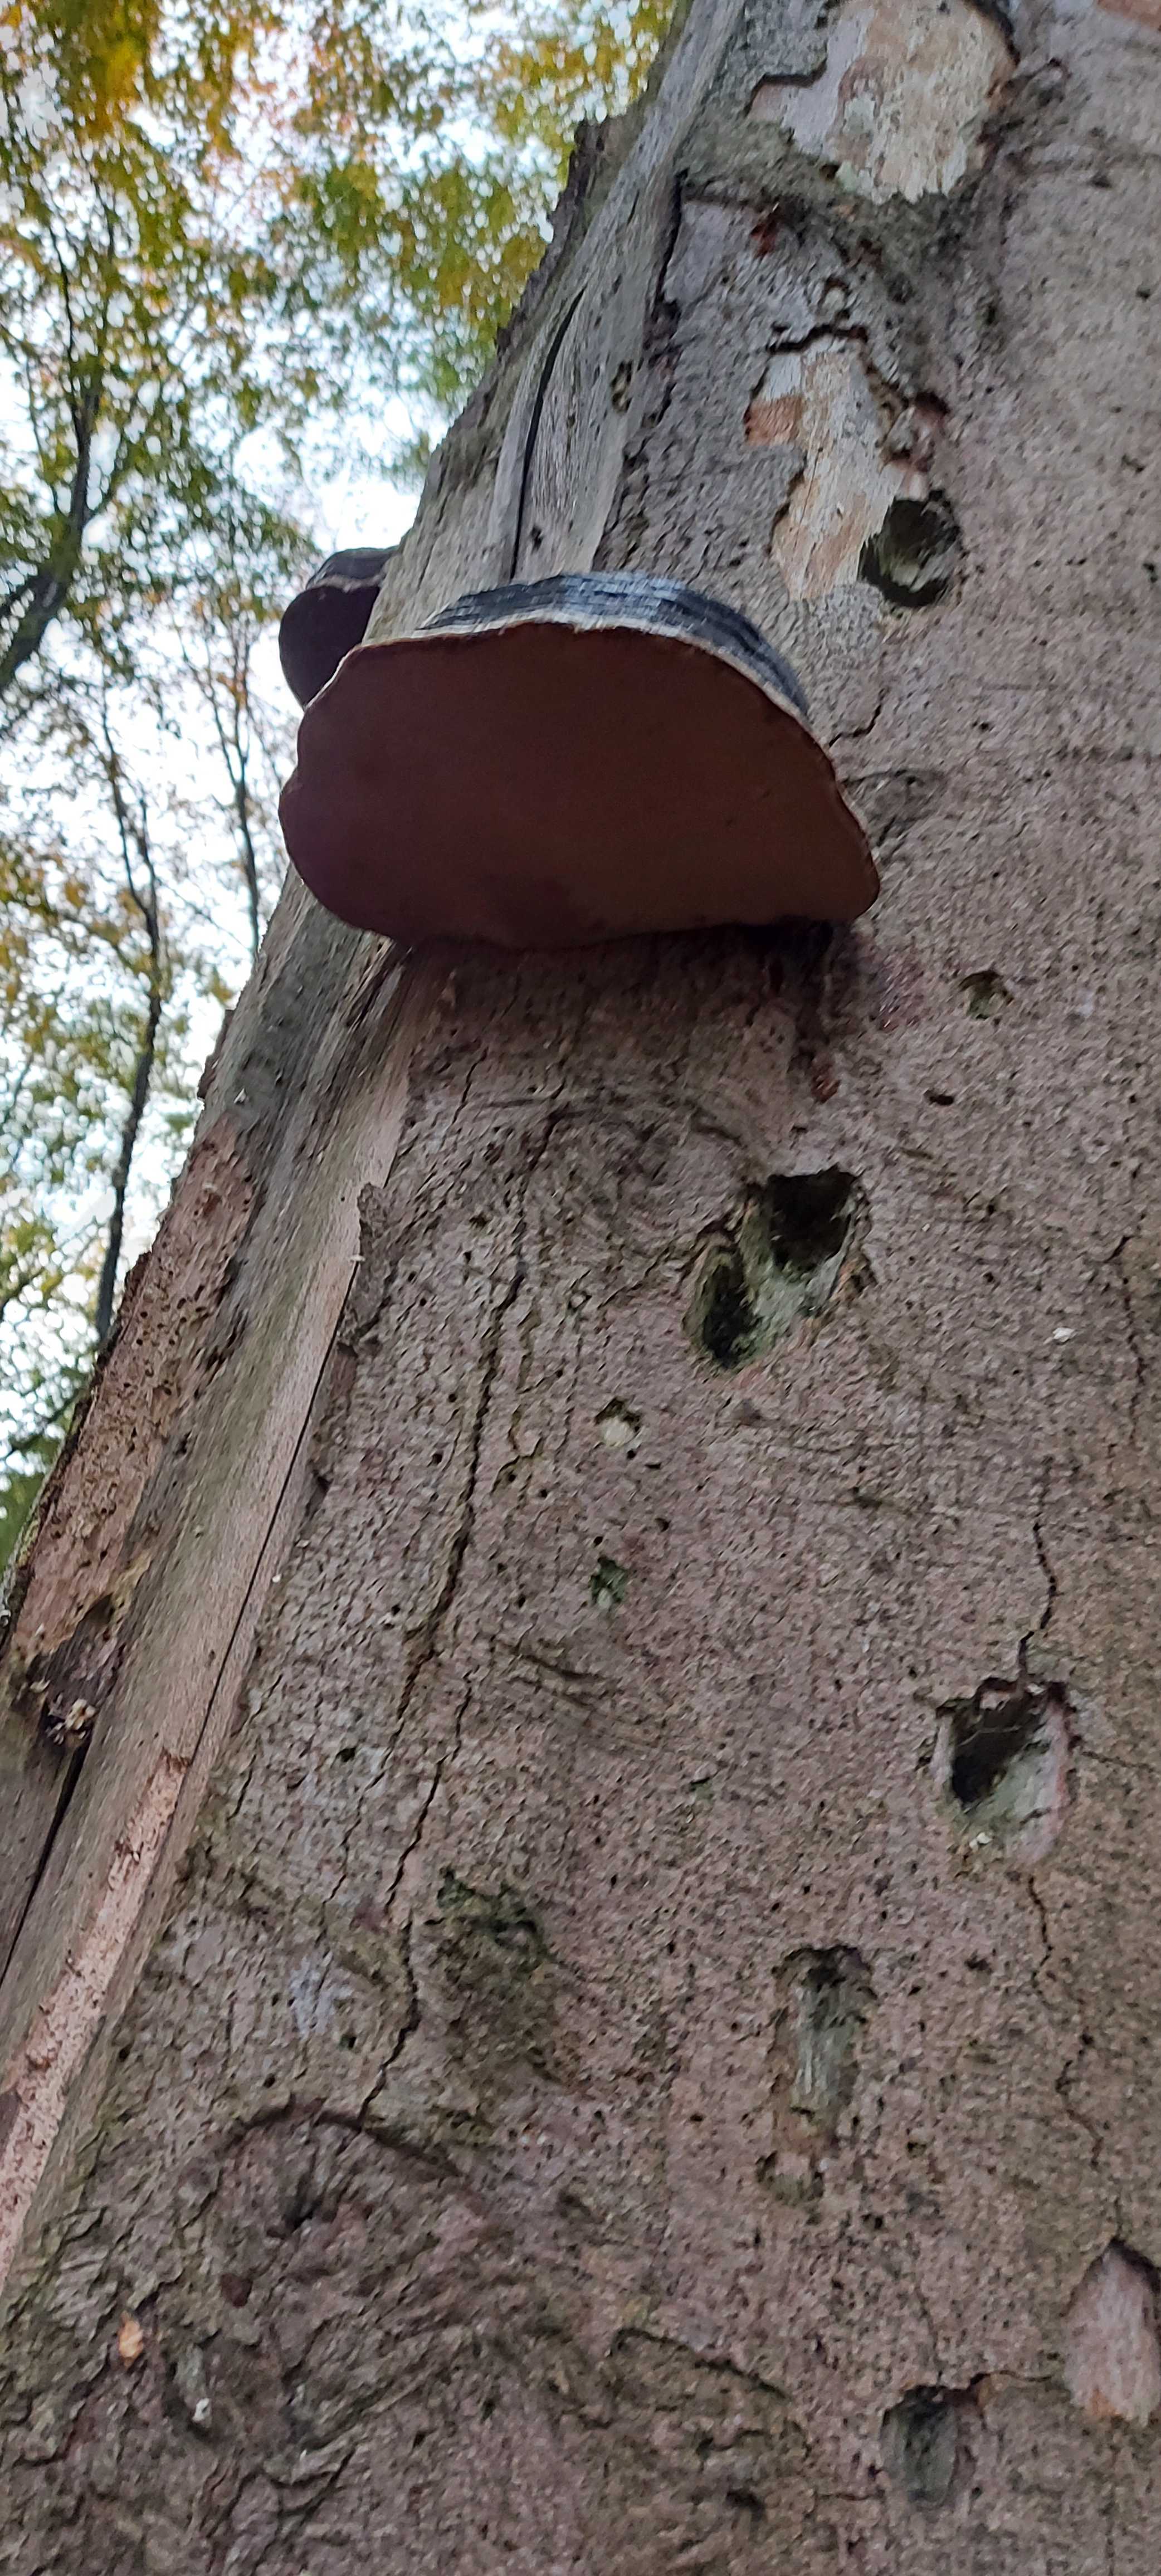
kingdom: Fungi
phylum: Basidiomycota
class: Agaricomycetes
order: Polyporales
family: Polyporaceae
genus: Fomes
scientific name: Fomes fomentarius
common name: tøndersvamp
